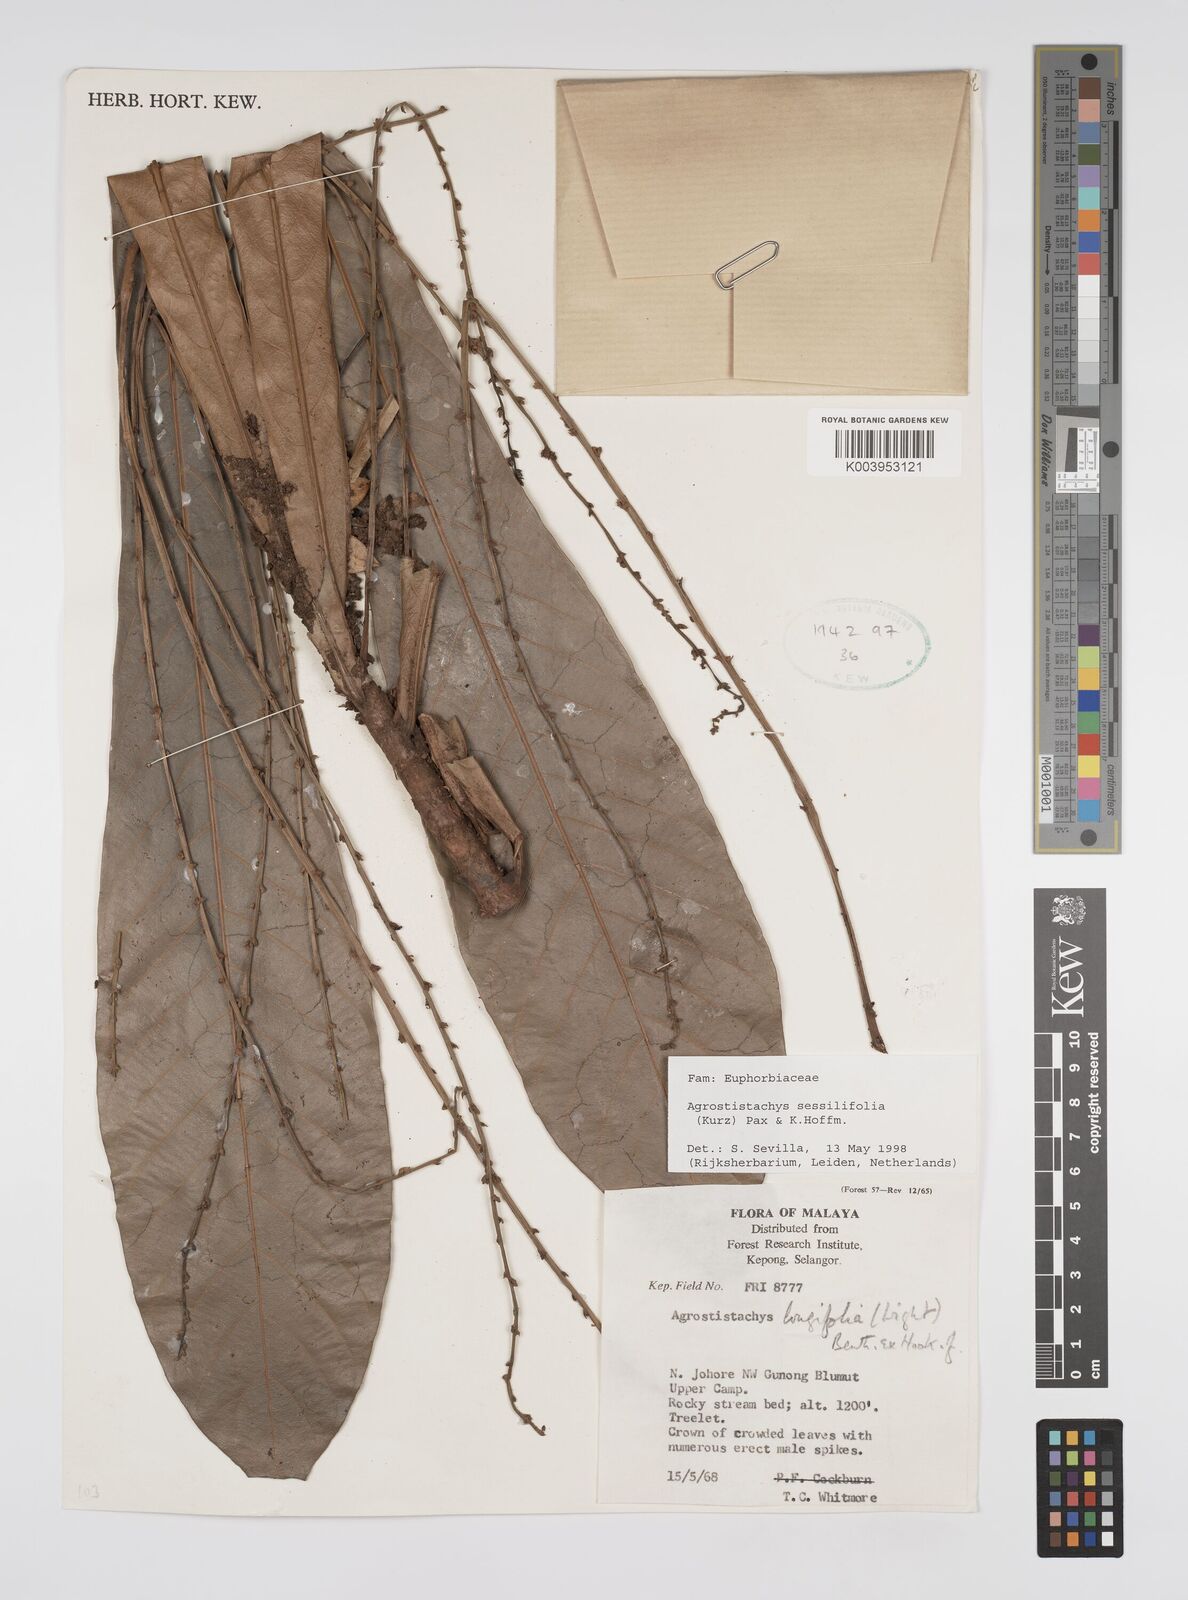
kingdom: Plantae
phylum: Tracheophyta
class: Magnoliopsida
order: Malpighiales
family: Euphorbiaceae
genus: Agrostistachys
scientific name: Agrostistachys sessilifolia
